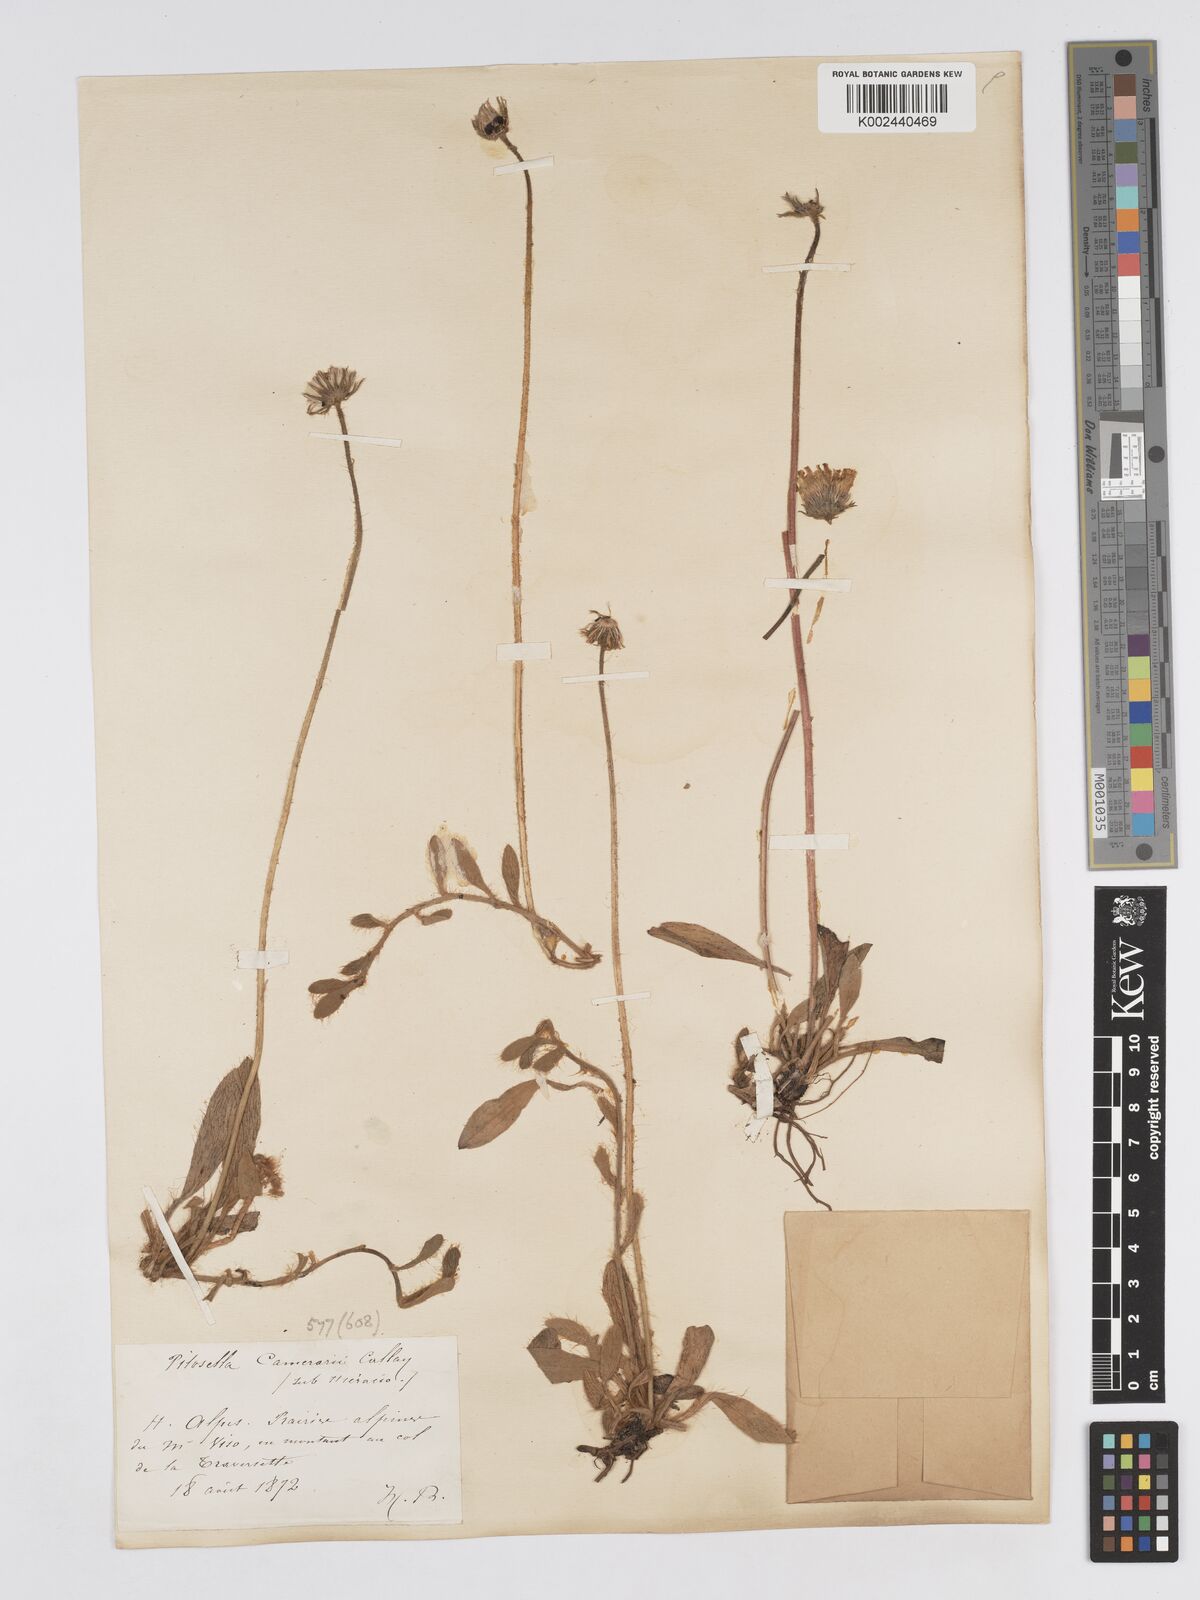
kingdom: Plantae
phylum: Tracheophyta
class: Magnoliopsida
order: Asterales
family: Asteraceae
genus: Pilosella
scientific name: Pilosella velutina
